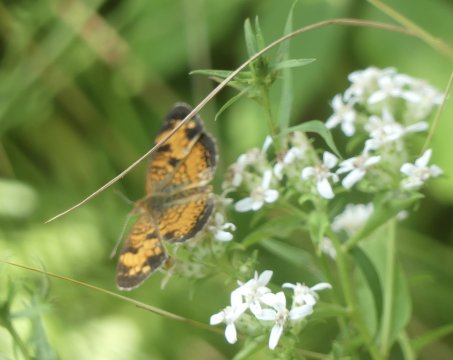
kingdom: Animalia
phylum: Arthropoda
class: Insecta
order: Lepidoptera
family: Nymphalidae
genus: Phyciodes
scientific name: Phyciodes tharos
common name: Pearl Crescent
